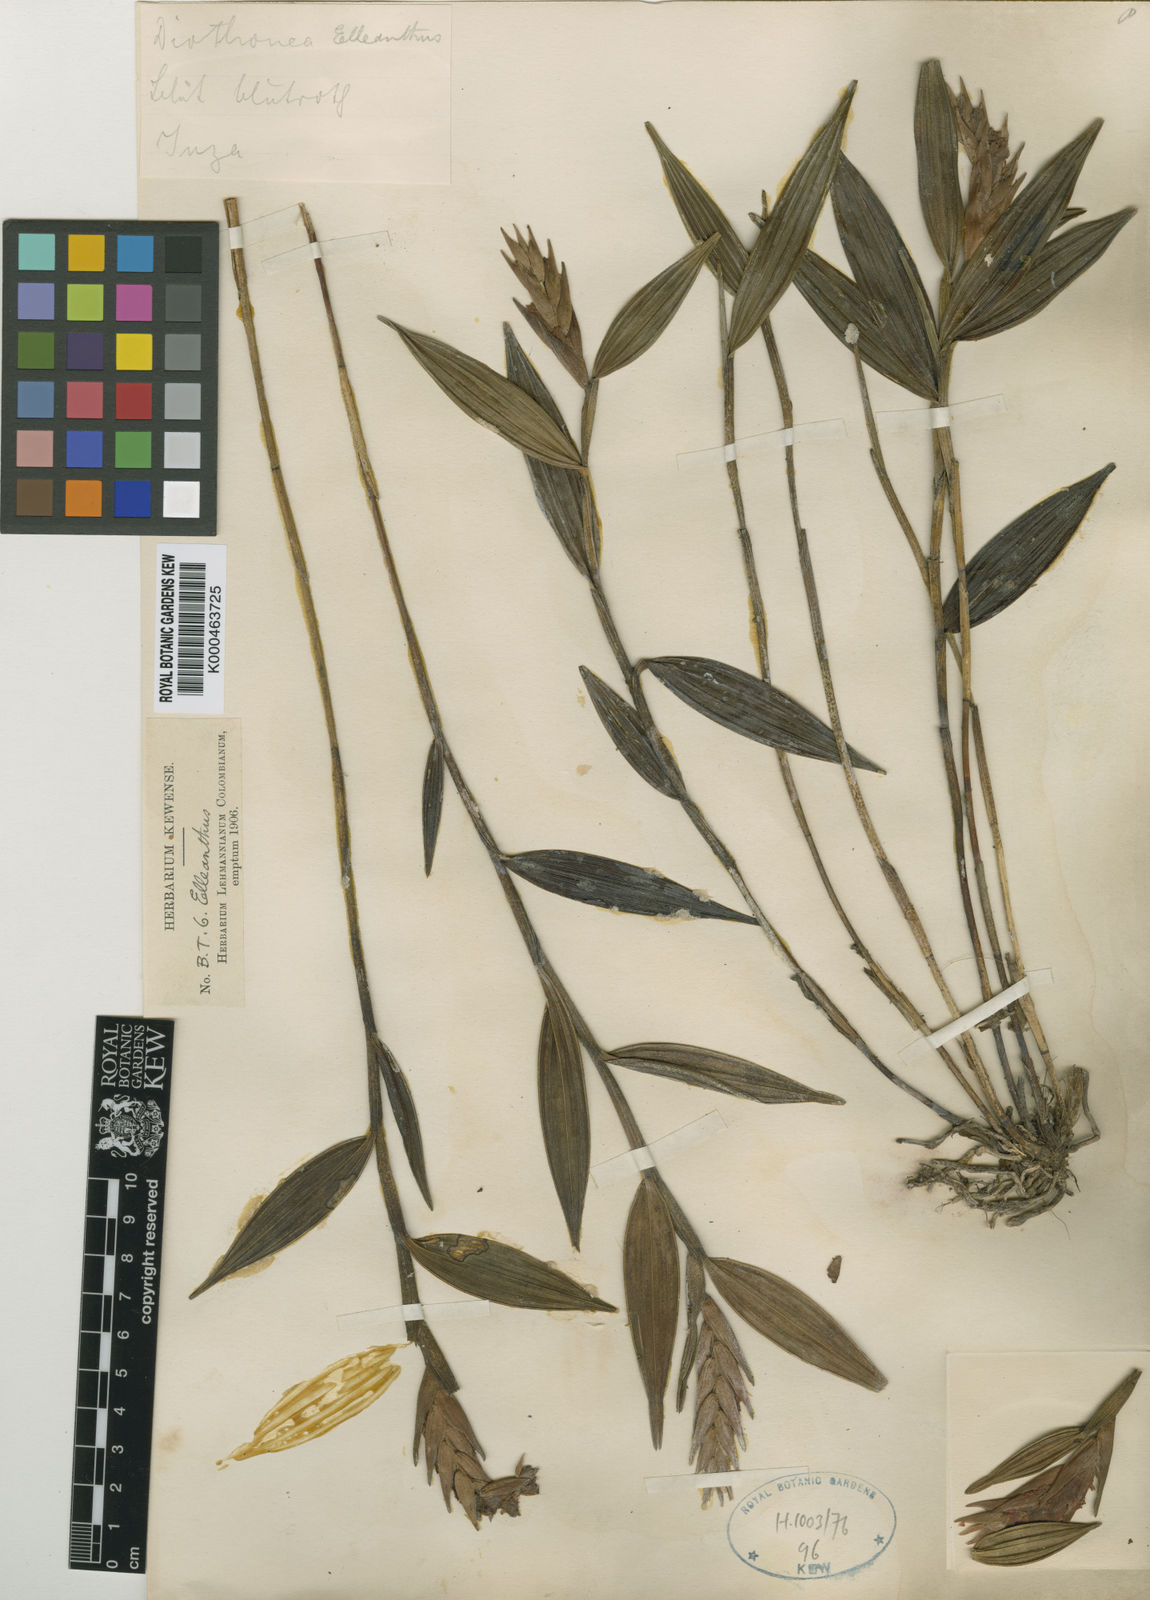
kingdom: Plantae
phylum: Tracheophyta
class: Liliopsida
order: Asparagales
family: Orchidaceae
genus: Elleanthus
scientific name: Elleanthus bifarius
